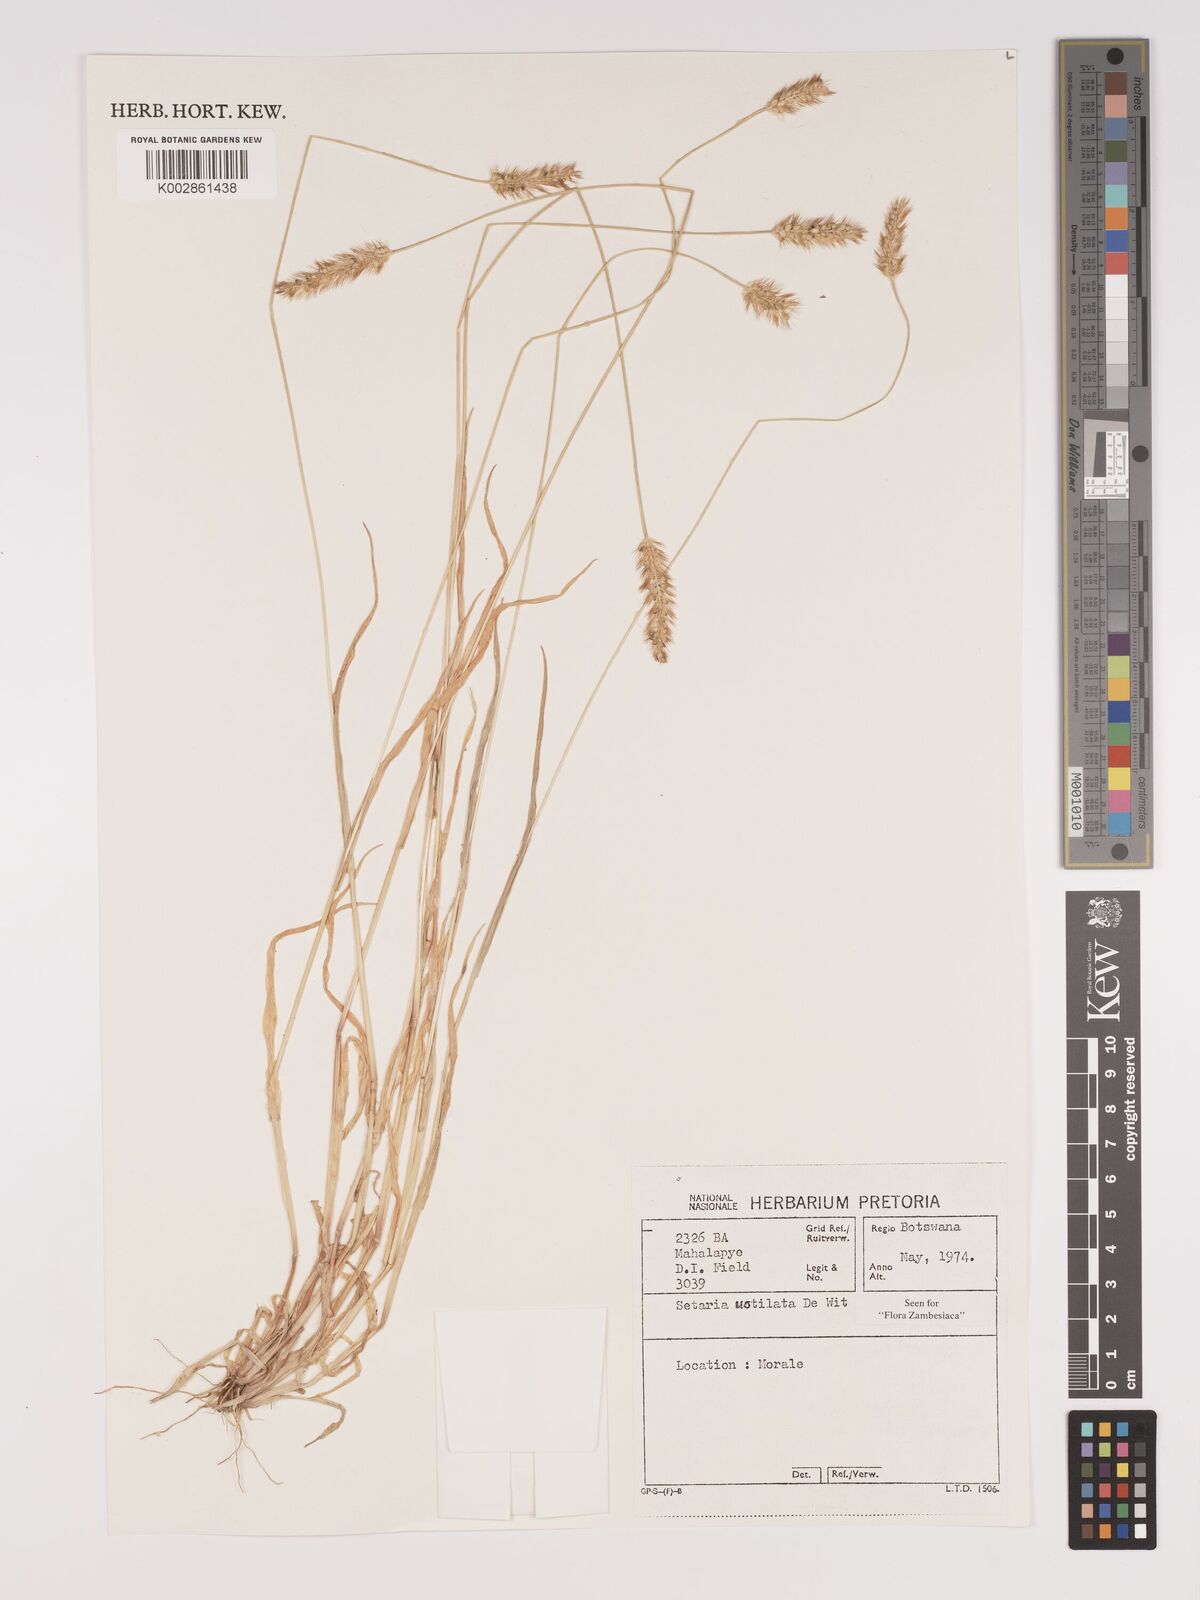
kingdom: Plantae
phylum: Tracheophyta
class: Liliopsida
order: Poales
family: Poaceae
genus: Setaria
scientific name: Setaria pumila
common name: Yellow bristle-grass
